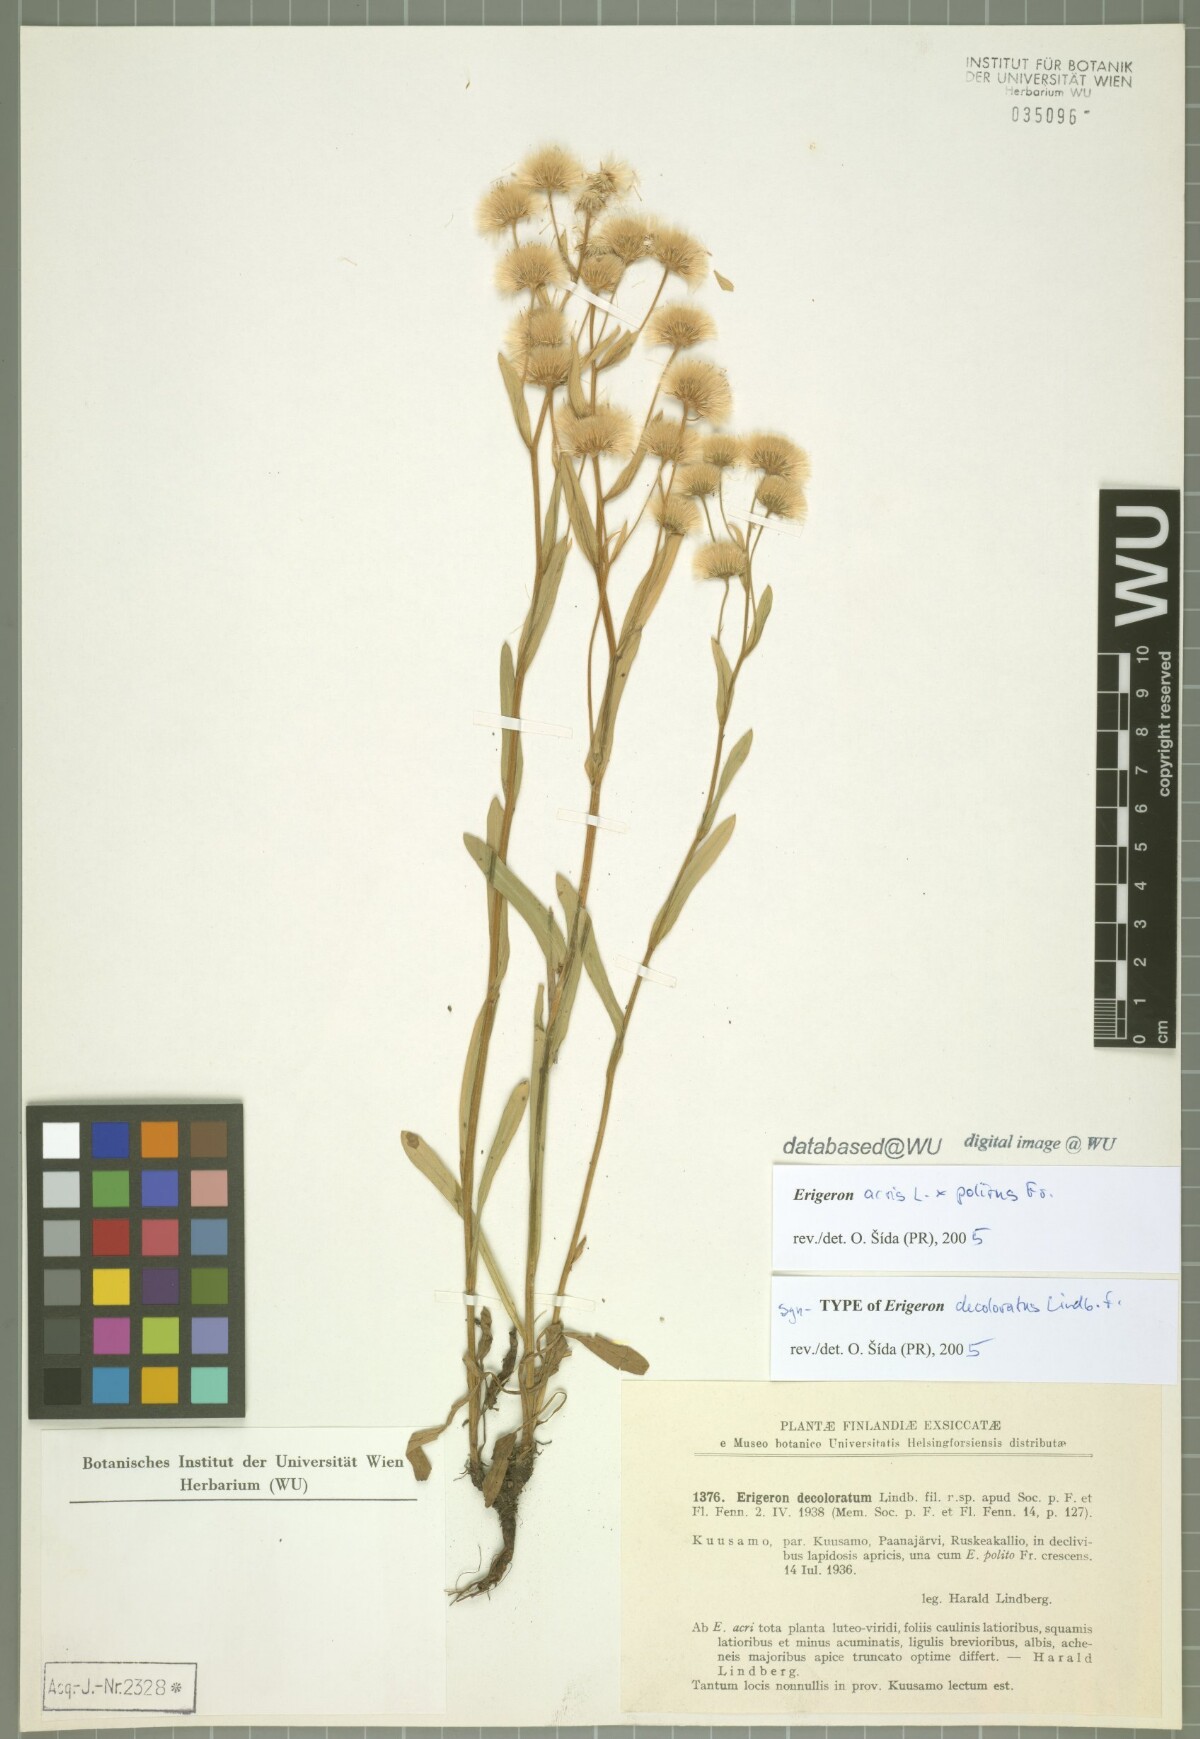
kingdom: Plantae
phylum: Tracheophyta
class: Magnoliopsida
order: Asterales
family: Asteraceae
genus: Erigeron
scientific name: Erigeron brachycephalus
